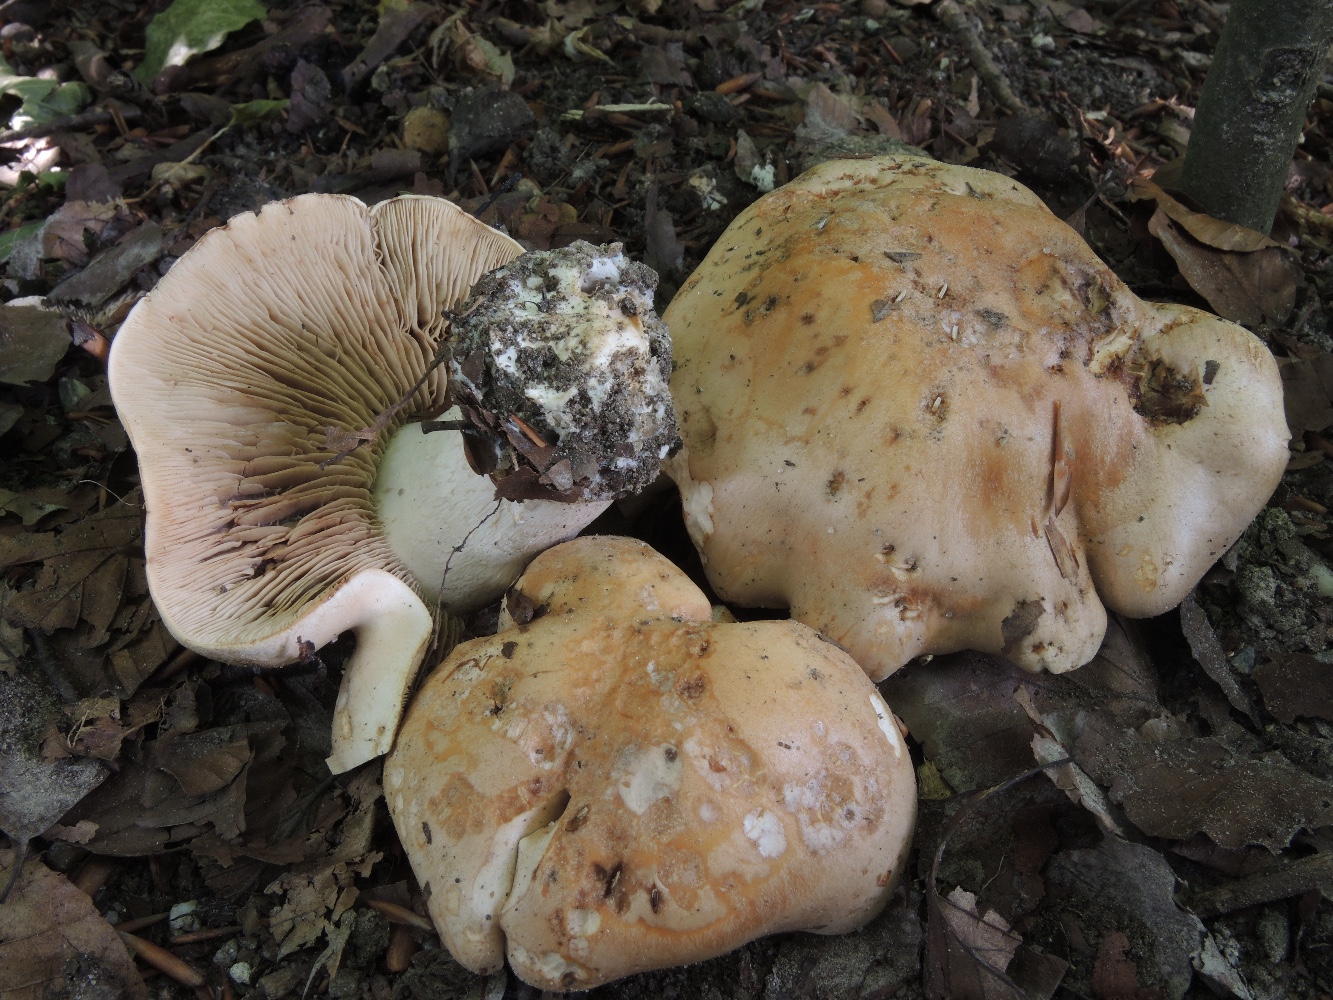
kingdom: Fungi
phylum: Basidiomycota
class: Agaricomycetes
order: Agaricales
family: Hymenogastraceae
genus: Hebeloma
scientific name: Hebeloma sinapizans
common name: ræddike-tåreblad
